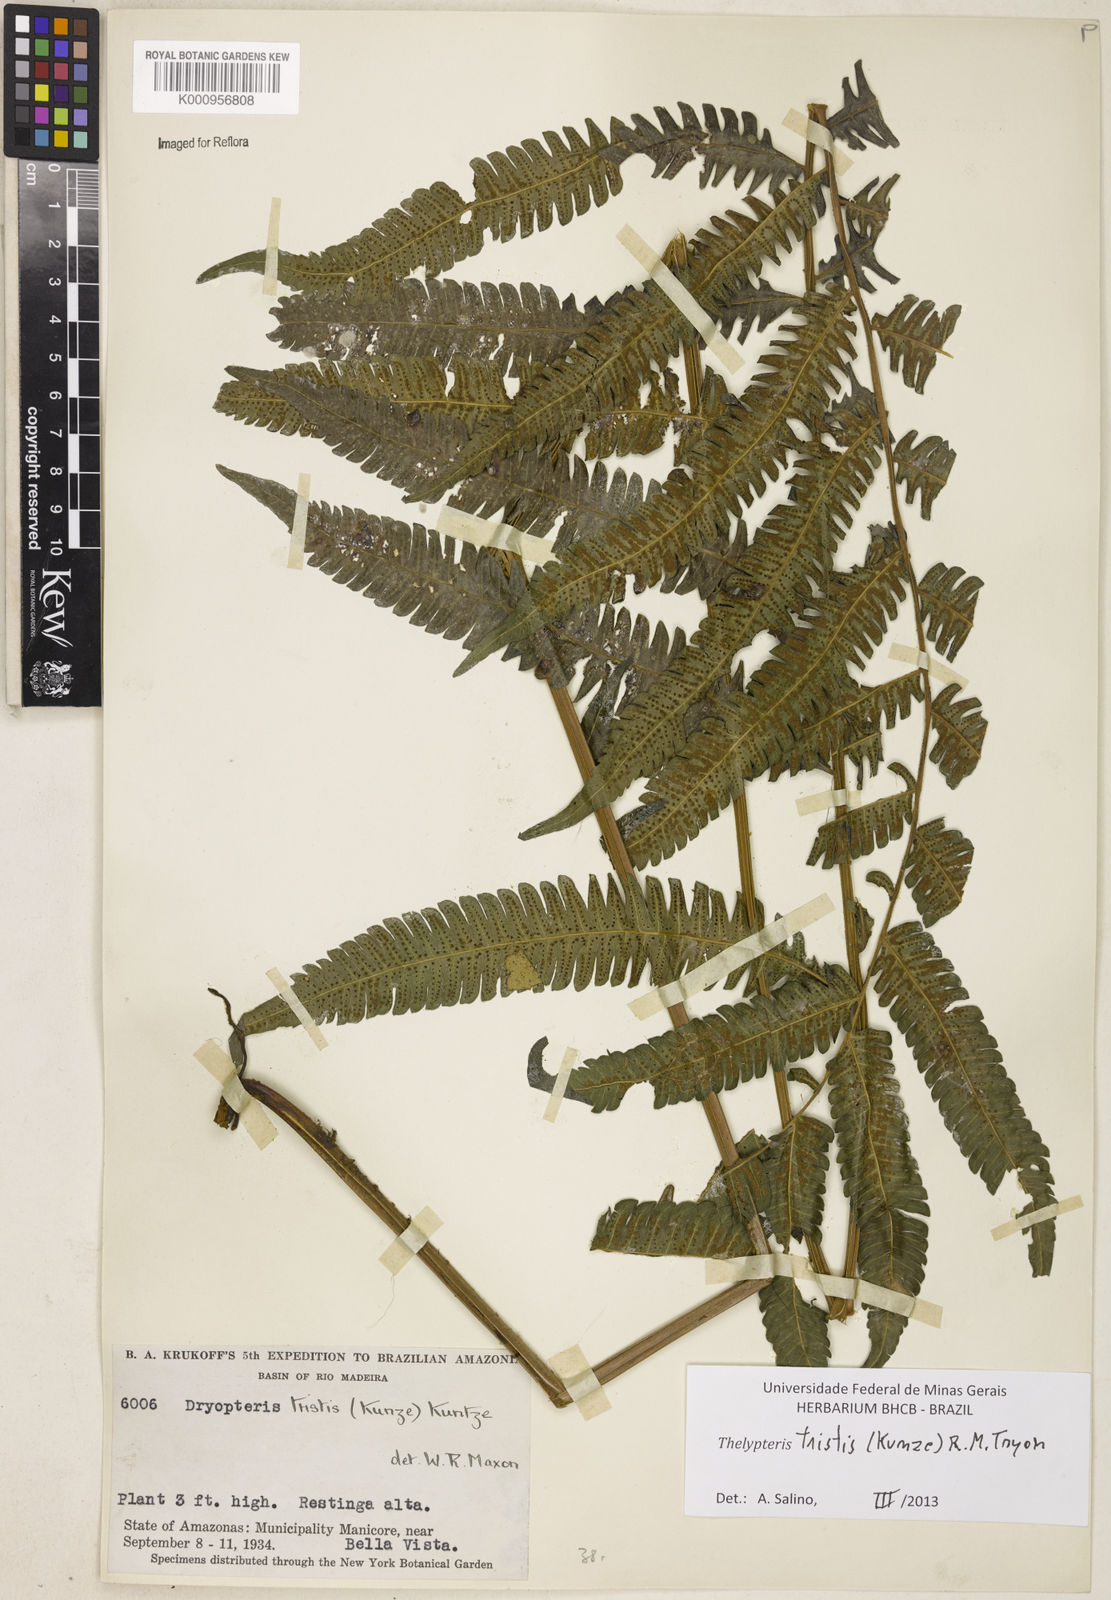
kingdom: Plantae
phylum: Tracheophyta
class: Polypodiopsida
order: Polypodiales
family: Thelypteridaceae
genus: Goniopteris
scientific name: Goniopteris tristis
